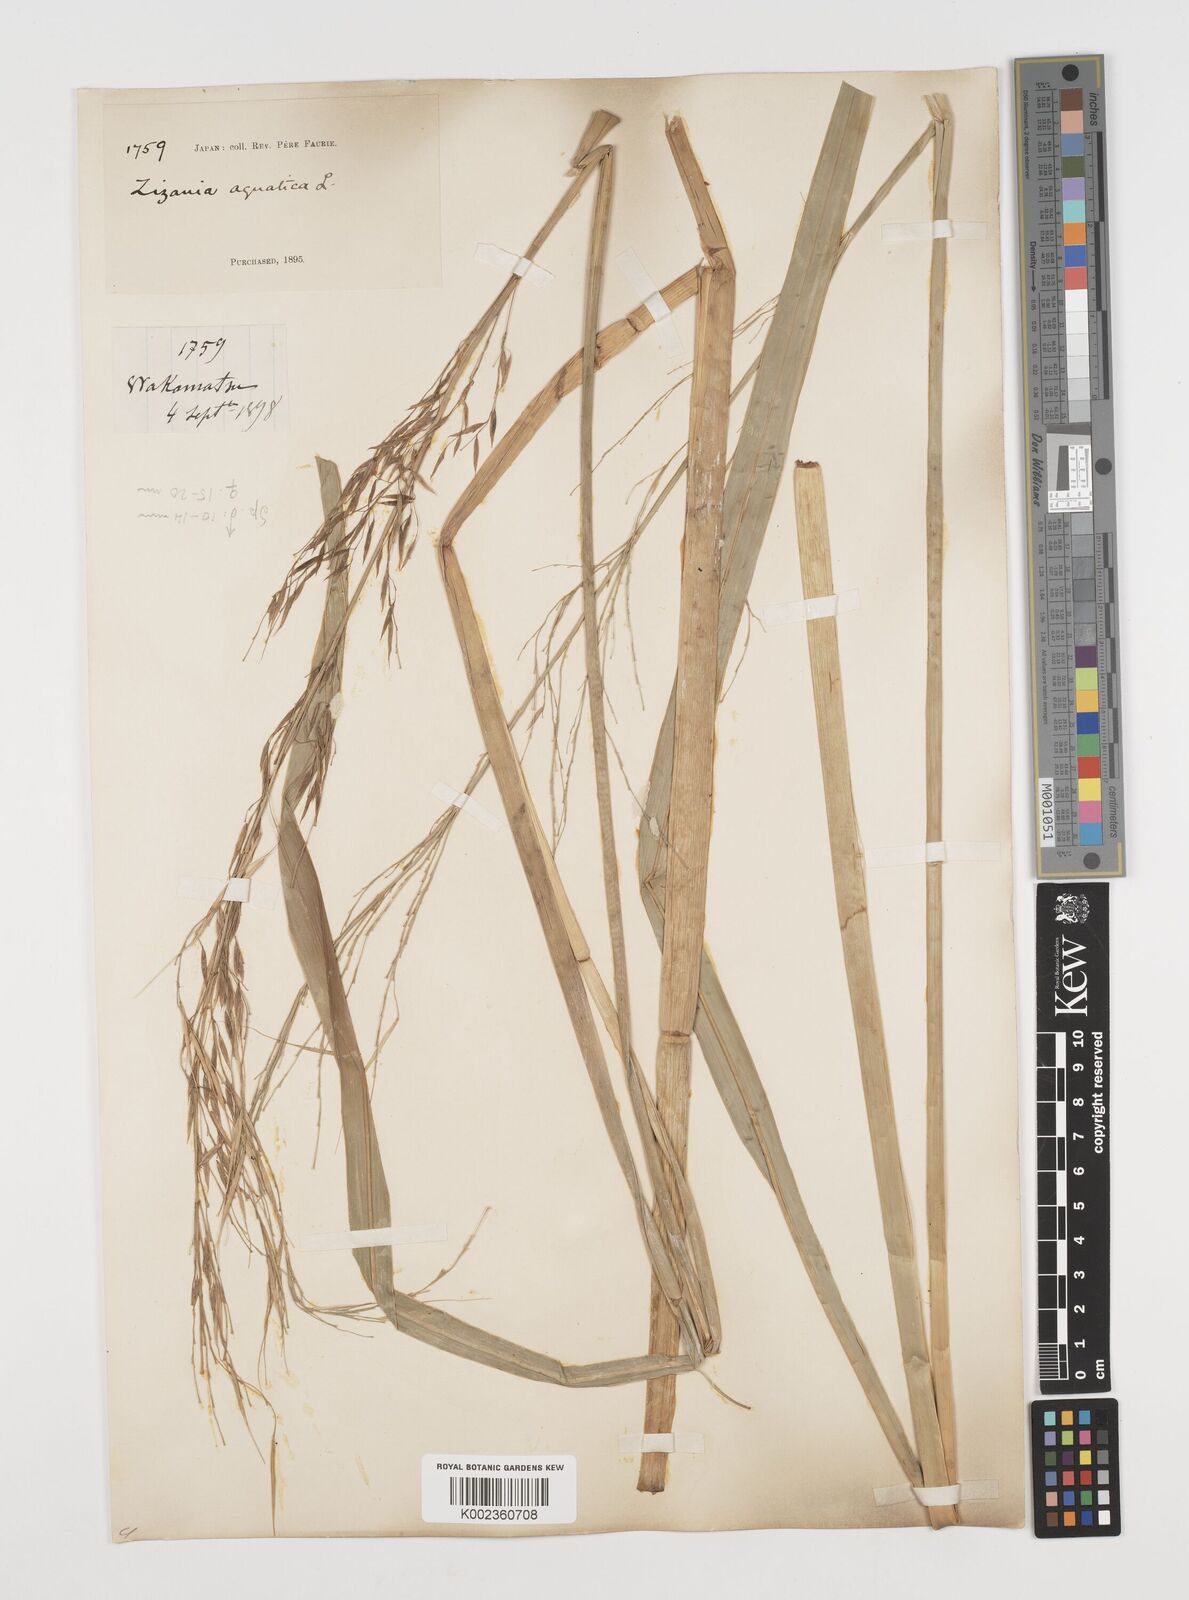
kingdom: Plantae
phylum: Tracheophyta
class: Liliopsida
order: Poales
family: Poaceae
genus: Zizania
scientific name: Zizania latifolia
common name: Manchurian wildrice
